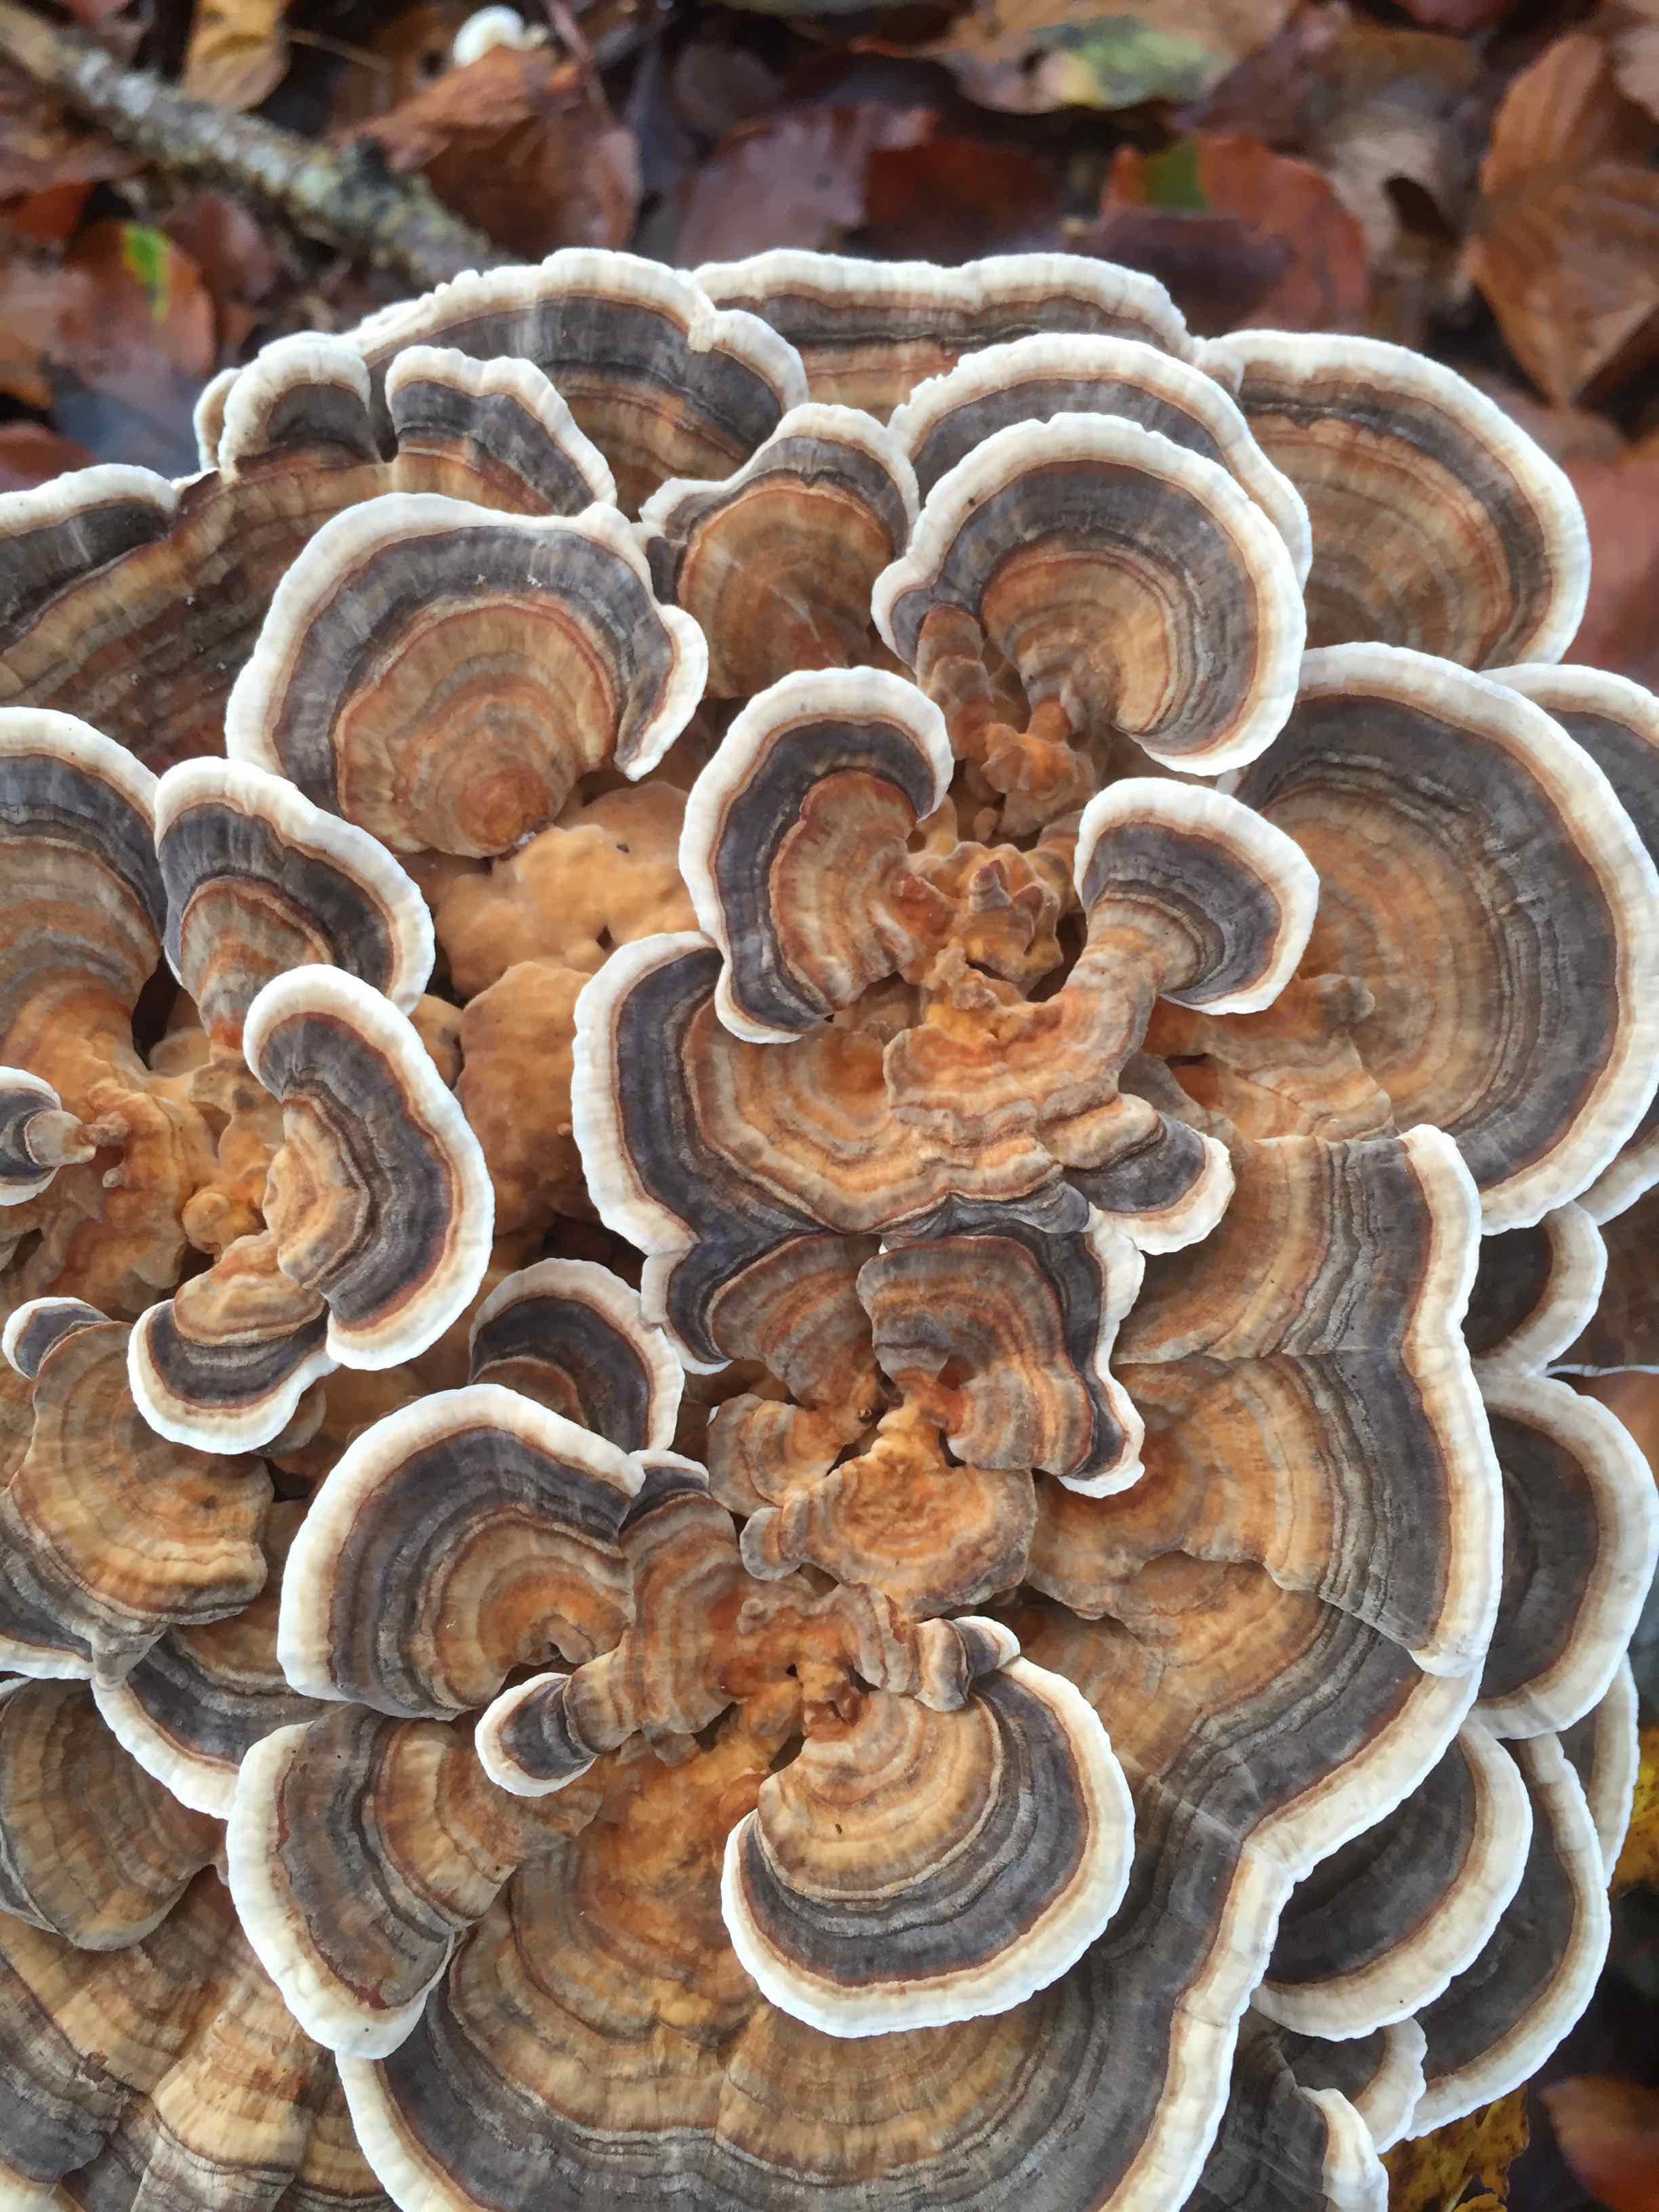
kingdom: Fungi
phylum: Basidiomycota
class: Agaricomycetes
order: Polyporales
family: Polyporaceae
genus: Trametes
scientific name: Trametes versicolor
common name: broget læderporesvamp
